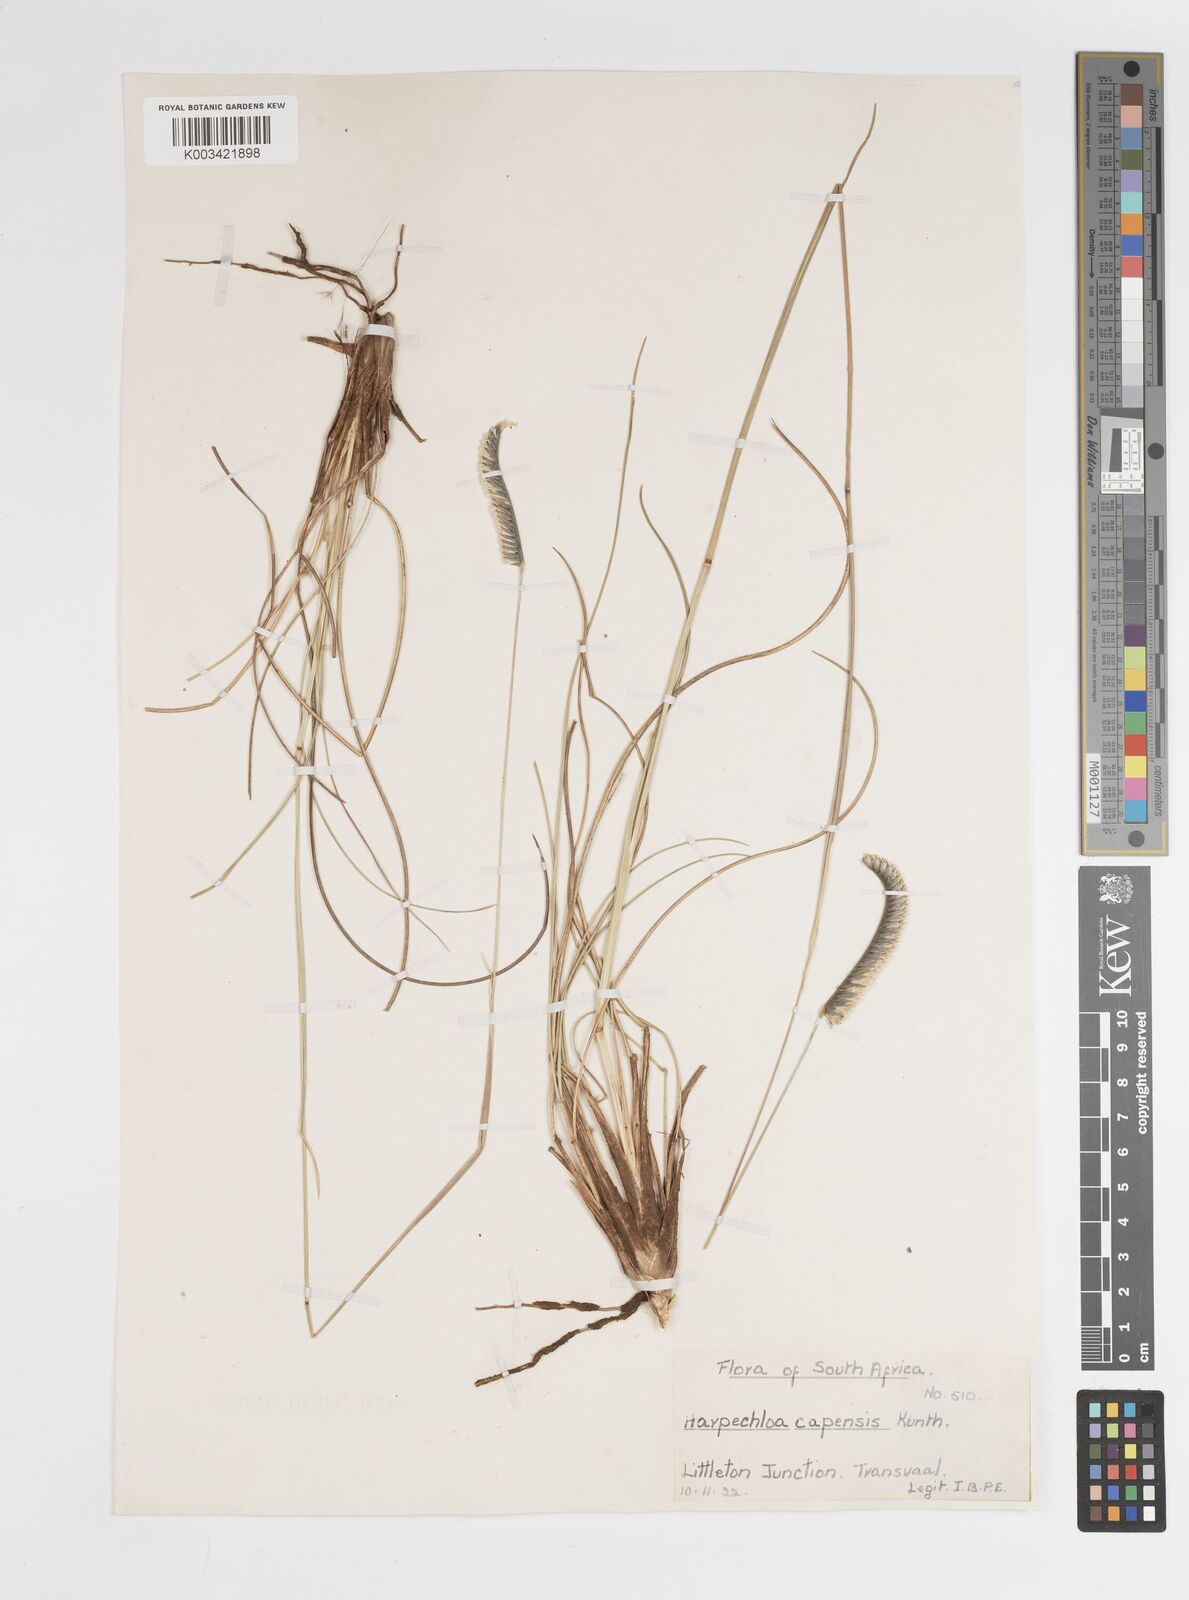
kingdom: Plantae
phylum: Tracheophyta
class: Liliopsida
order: Poales
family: Poaceae
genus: Harpochloa
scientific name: Harpochloa falx
